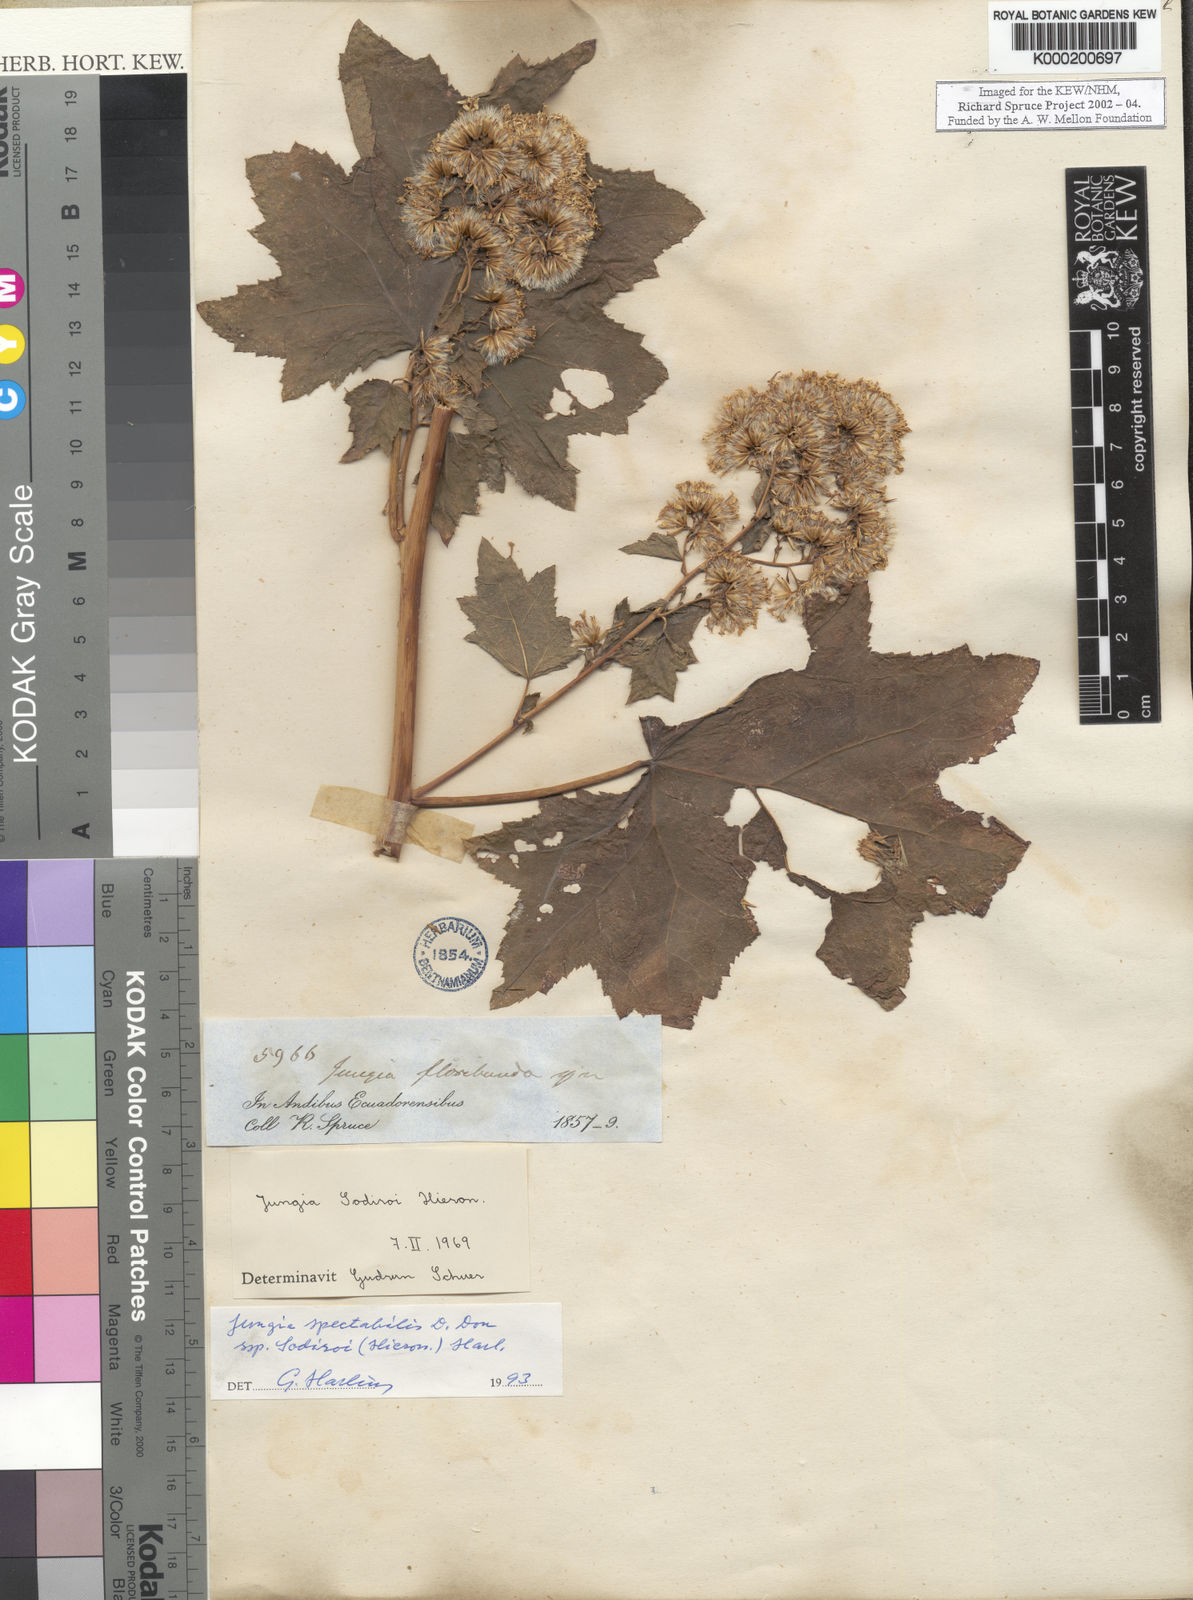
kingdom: Plantae
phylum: Tracheophyta
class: Magnoliopsida
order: Asterales
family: Asteraceae
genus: Jungia
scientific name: Jungia
